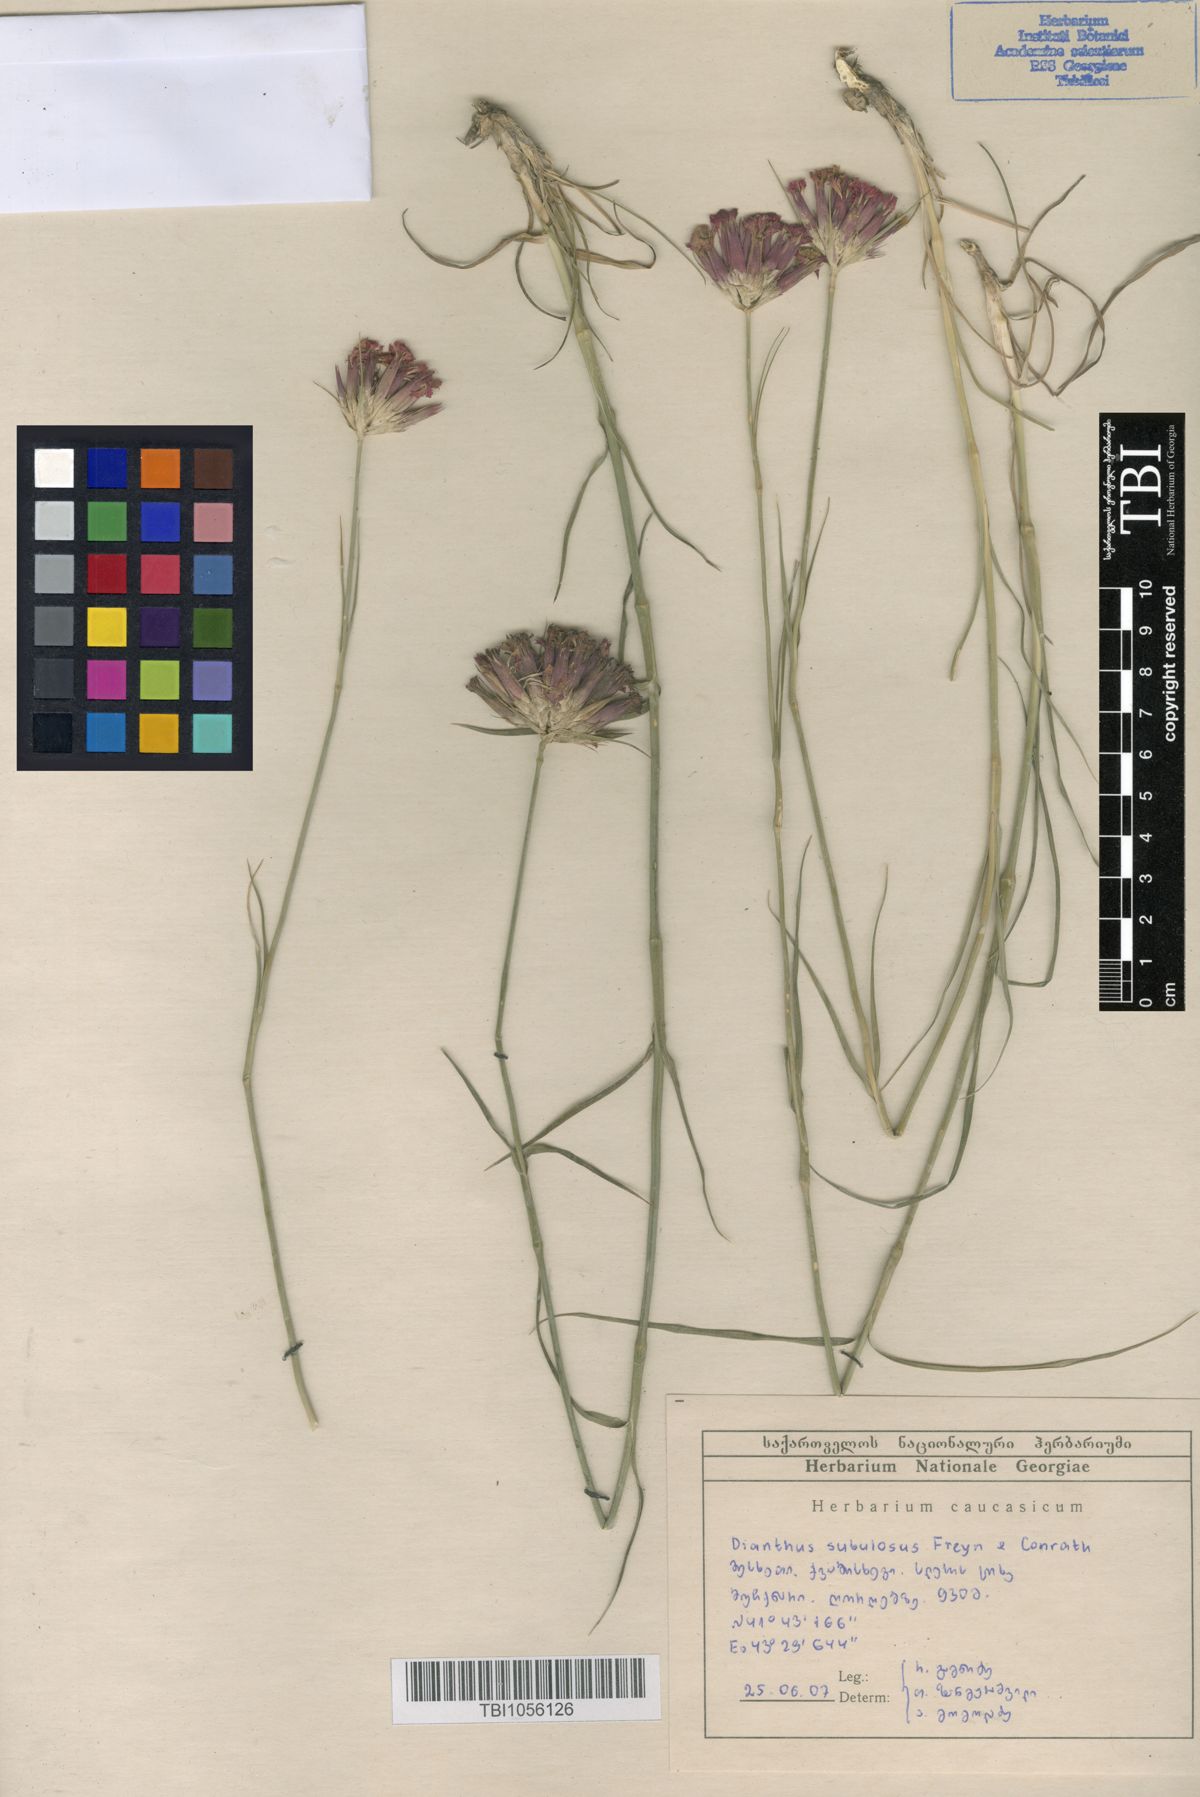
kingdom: Plantae
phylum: Tracheophyta
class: Magnoliopsida
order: Caryophyllales
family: Caryophyllaceae
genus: Dianthus
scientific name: Dianthus subulosus
